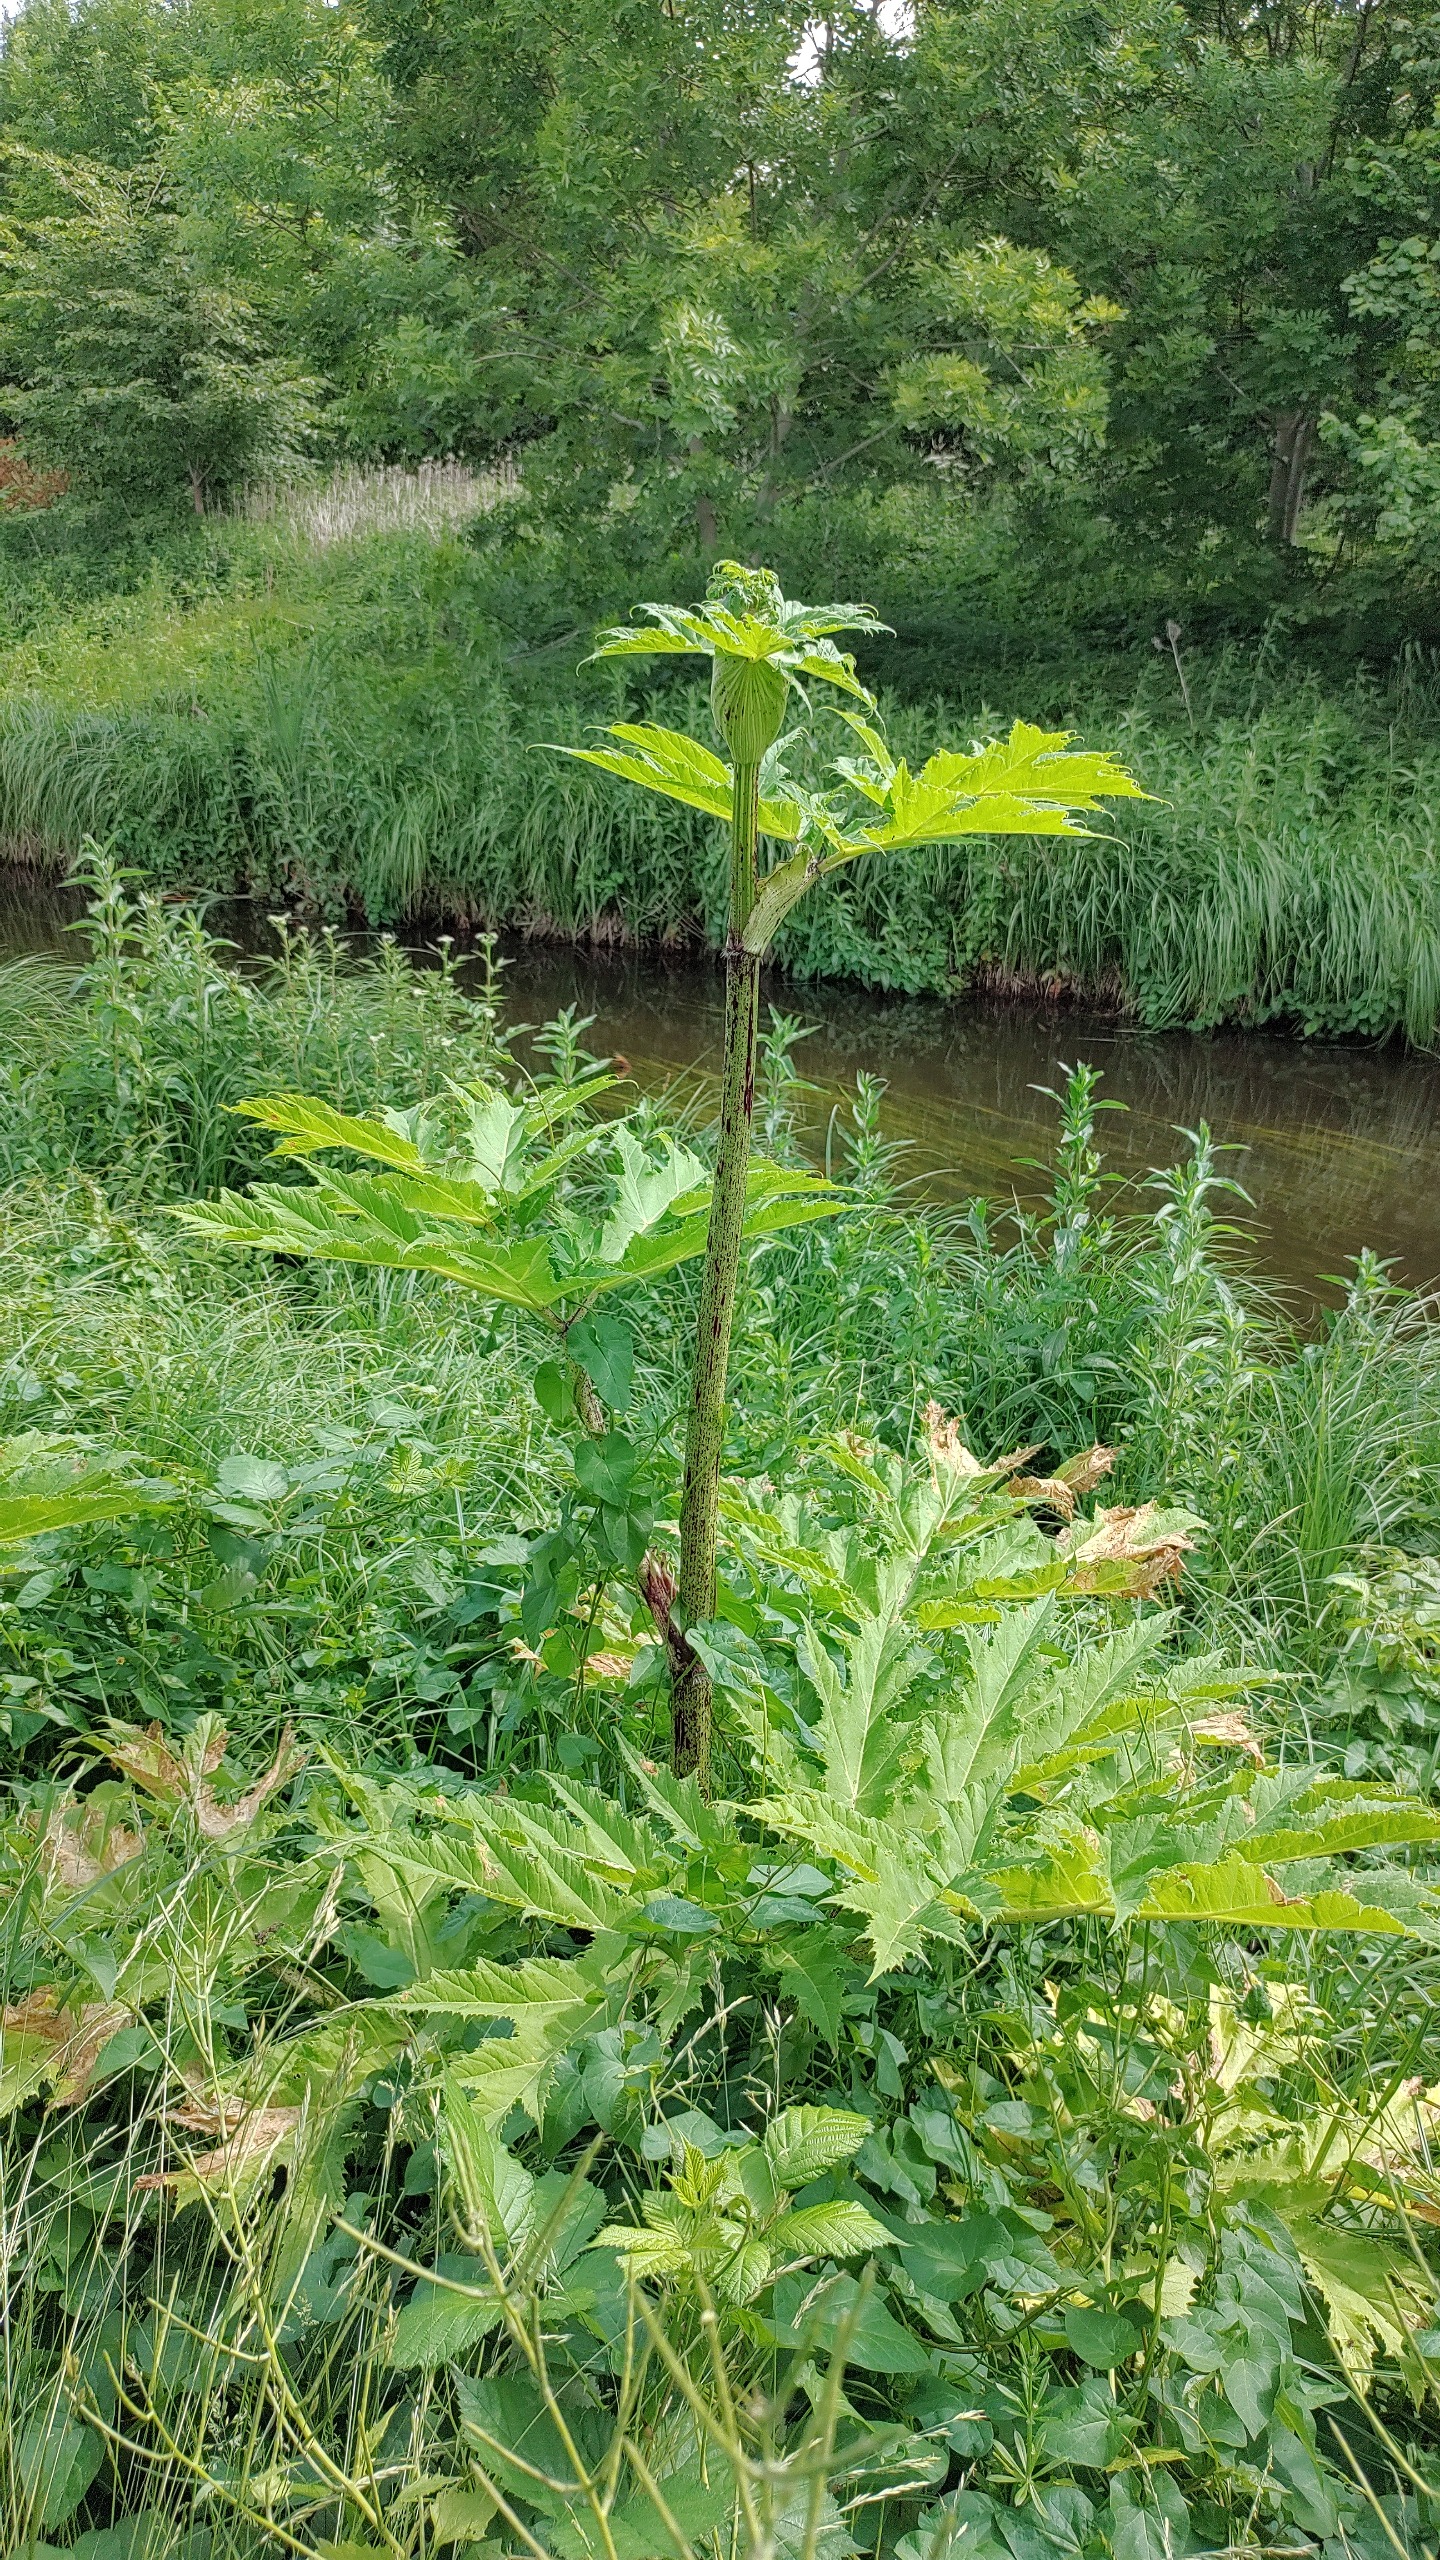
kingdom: Plantae
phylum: Tracheophyta
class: Magnoliopsida
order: Apiales
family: Apiaceae
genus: Heracleum
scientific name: Heracleum mantegazzianum
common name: Kæmpe-bjørneklo
